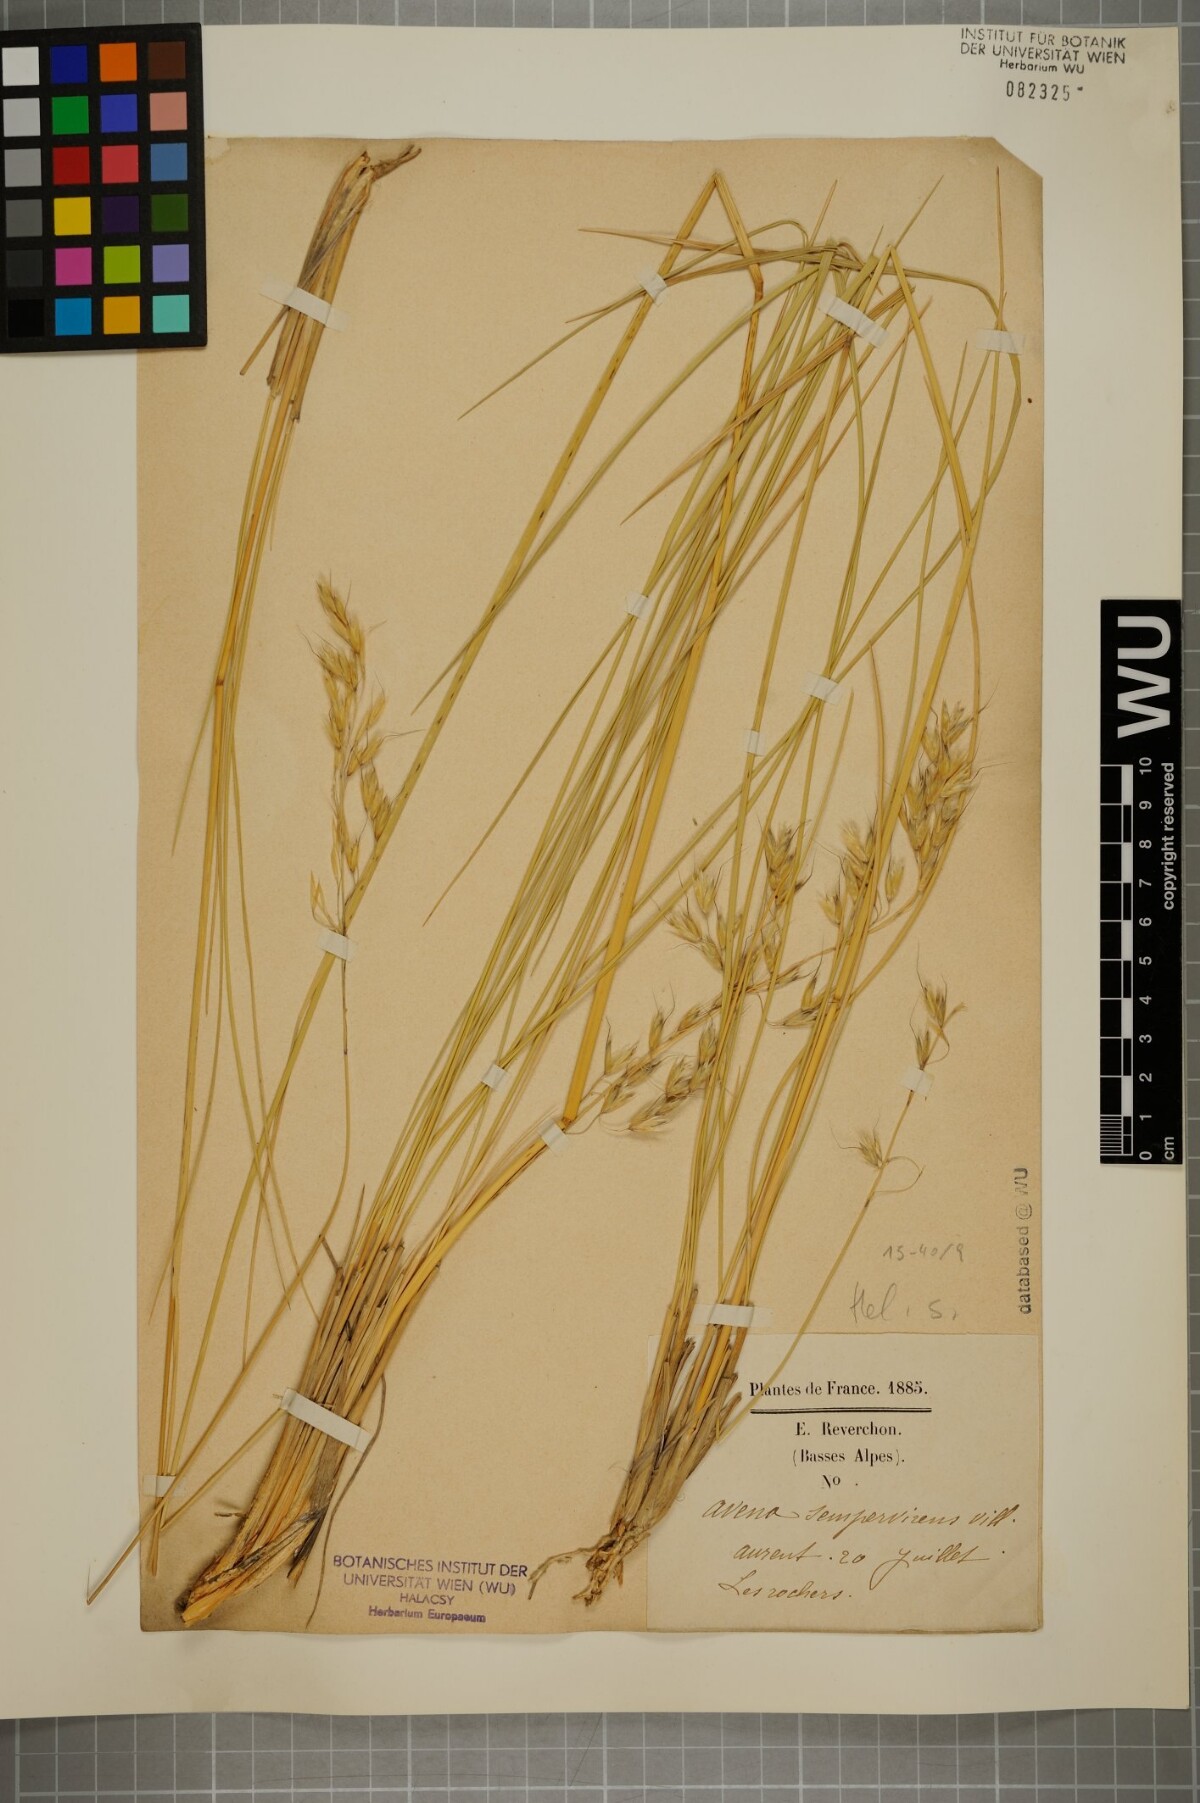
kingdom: Plantae
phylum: Tracheophyta
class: Liliopsida
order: Poales
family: Poaceae
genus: Helictotrichon
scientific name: Helictotrichon sempervirens
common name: Blue oat-grass
